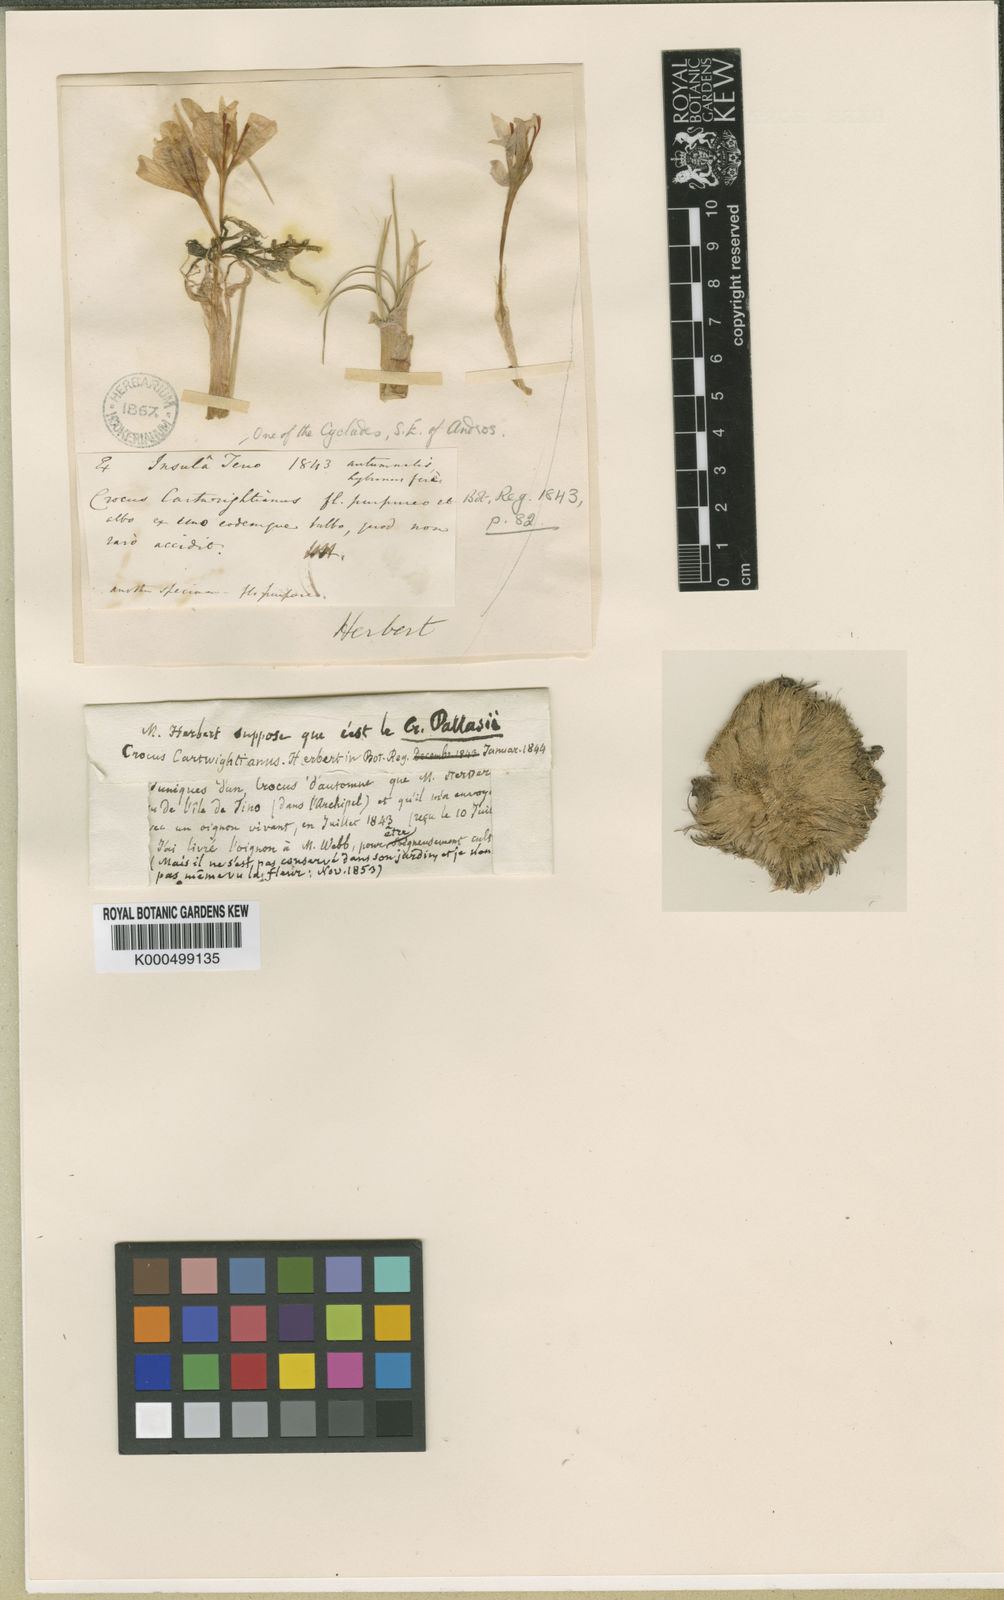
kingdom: Plantae
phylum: Tracheophyta
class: Liliopsida
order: Asparagales
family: Iridaceae
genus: Crocus
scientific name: Crocus cartwrightianus
